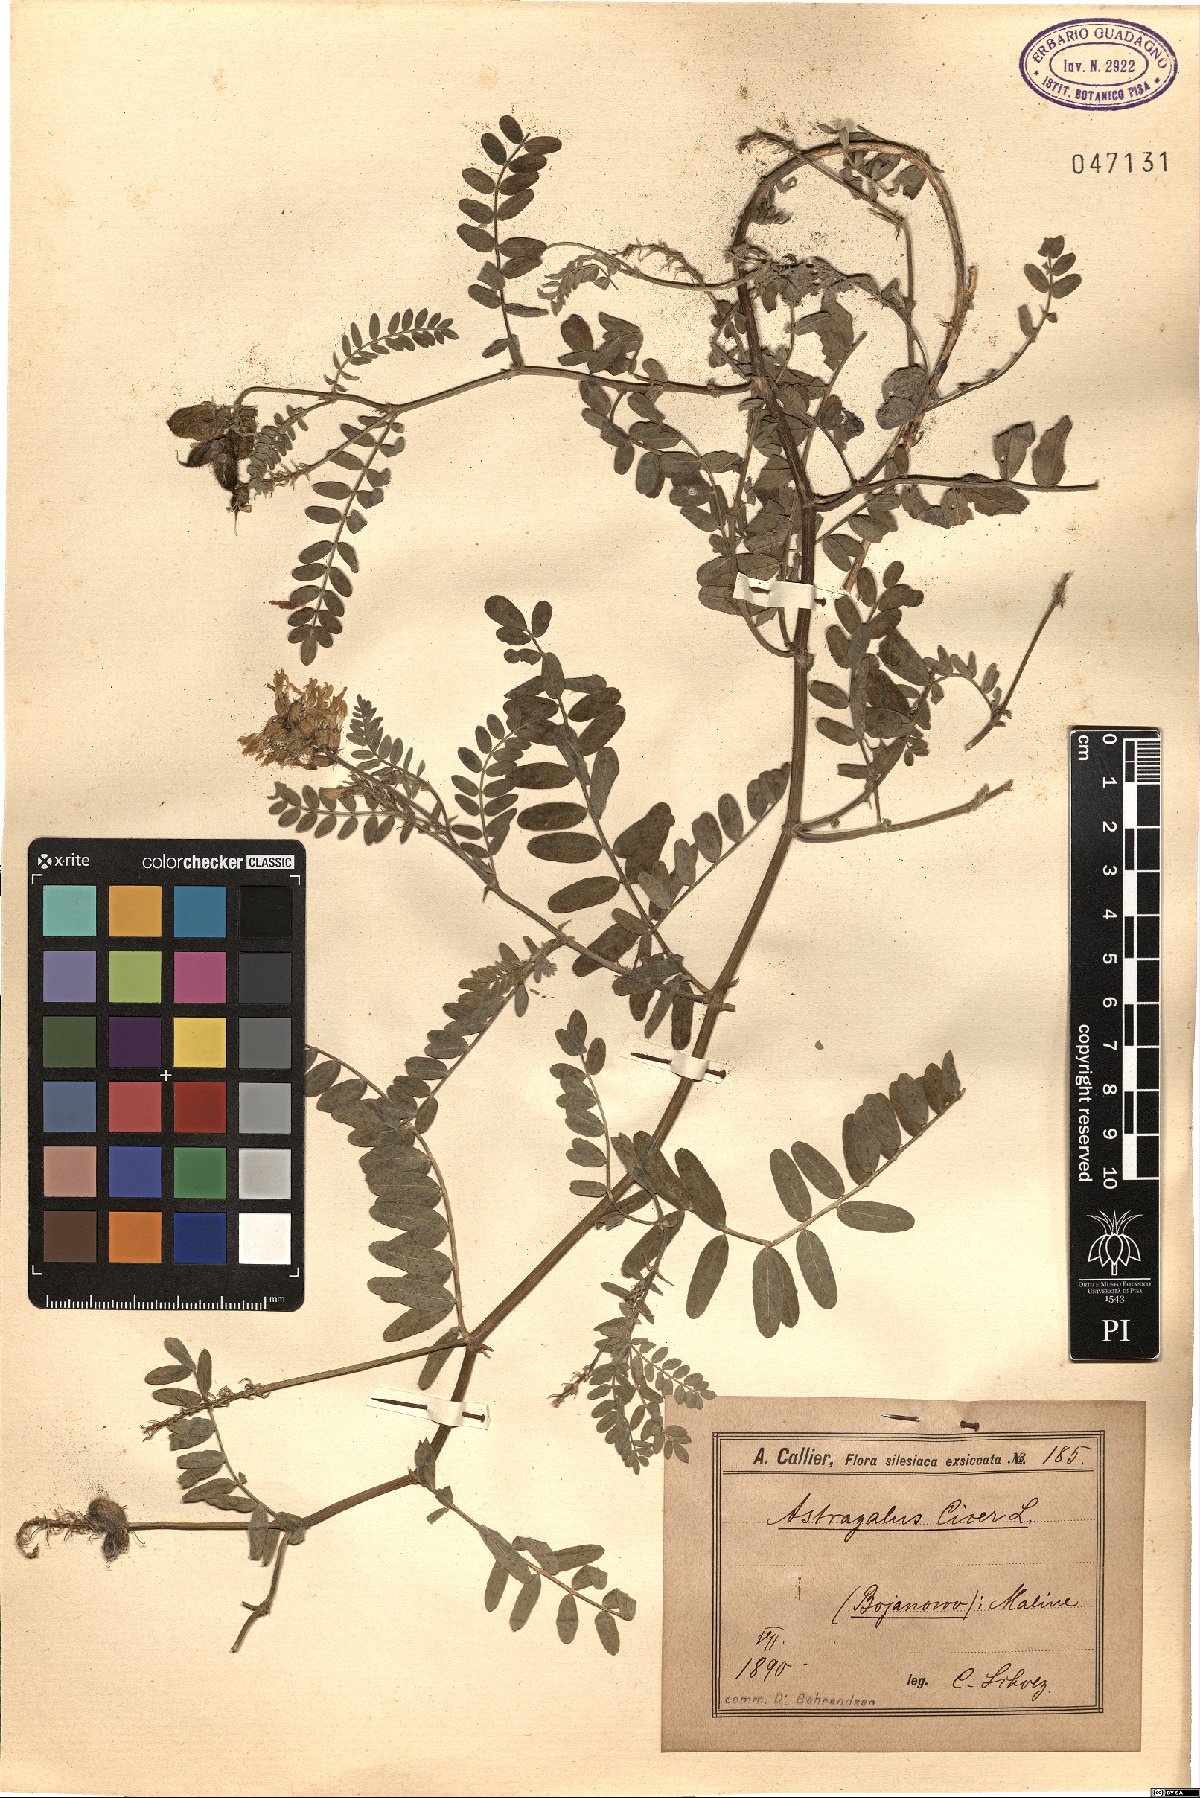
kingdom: Plantae
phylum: Tracheophyta
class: Magnoliopsida
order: Fabales
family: Fabaceae
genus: Astragalus
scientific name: Astragalus cicer
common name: Chick-pea milk-vetch
